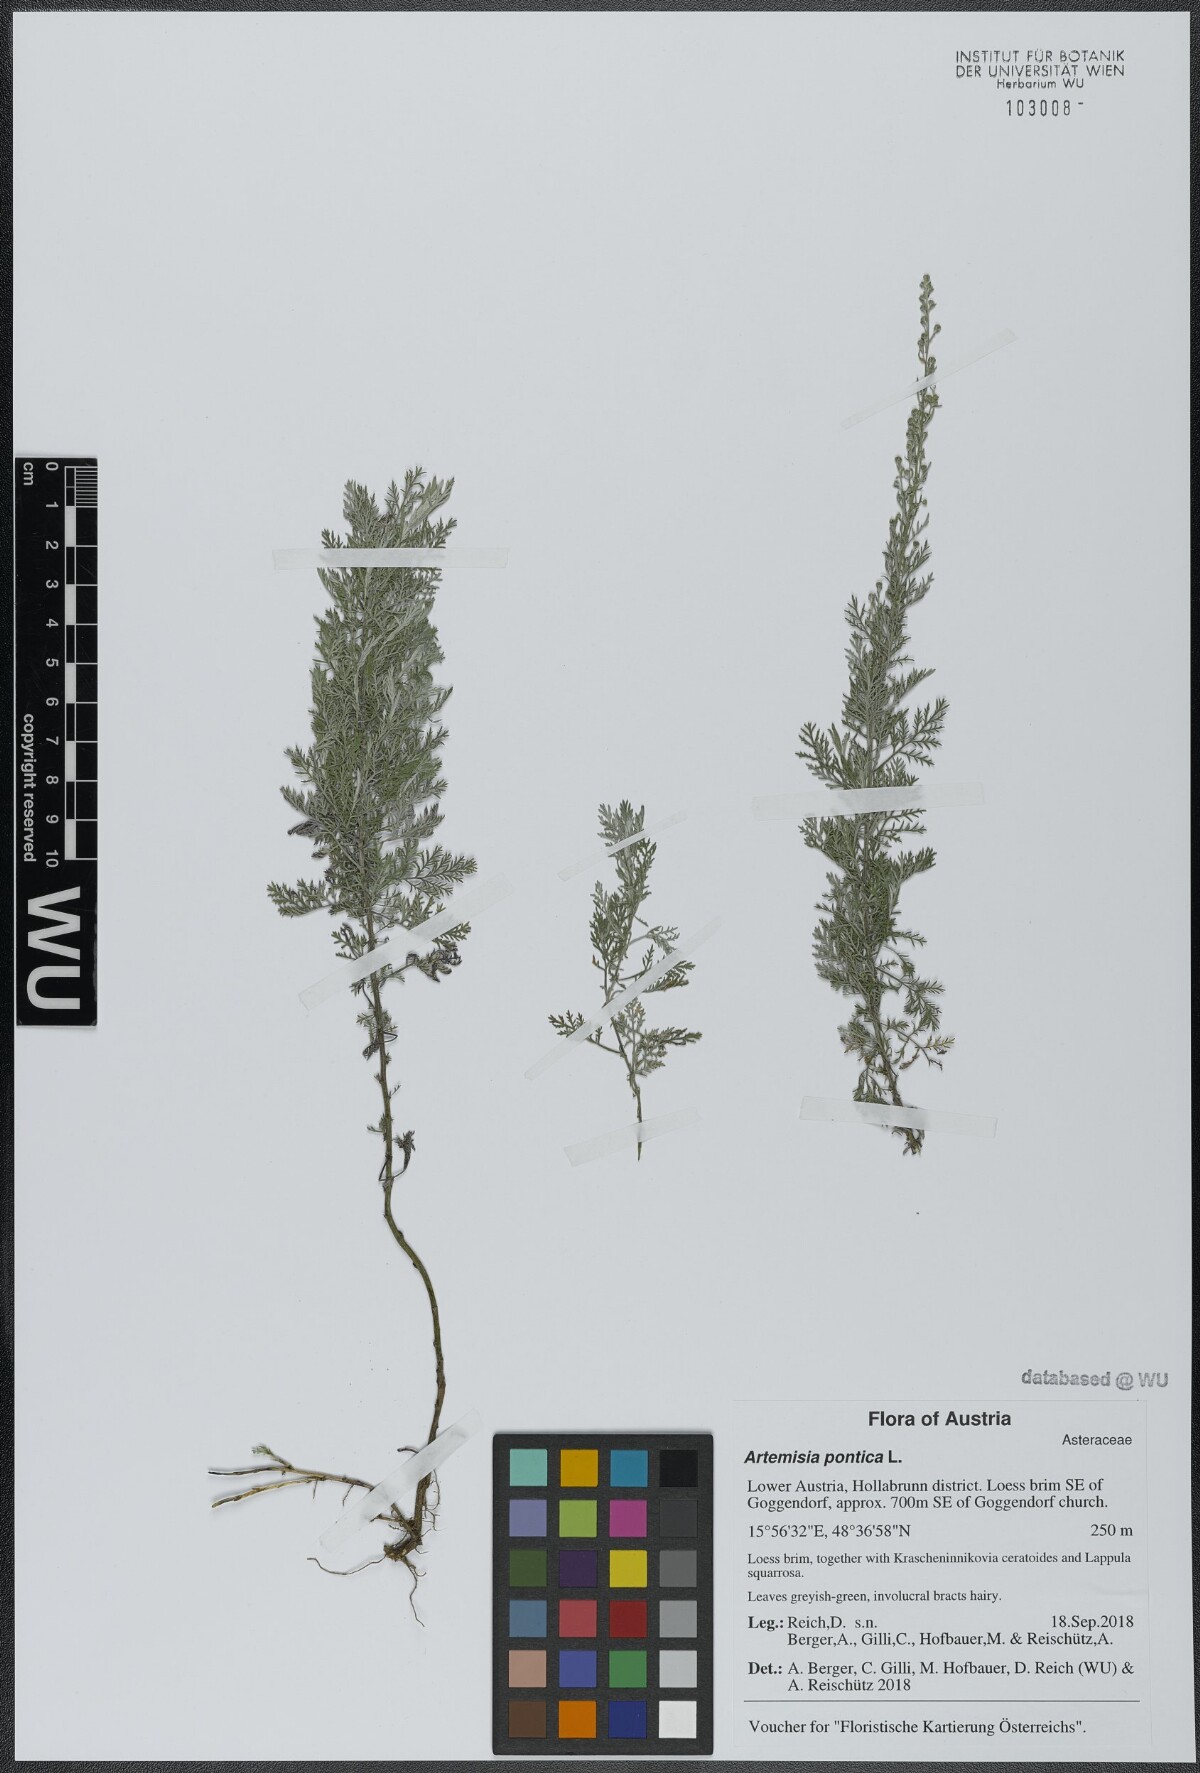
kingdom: Plantae
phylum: Tracheophyta
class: Magnoliopsida
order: Asterales
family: Asteraceae
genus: Artemisia
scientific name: Artemisia pontica
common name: Roman wormwood
